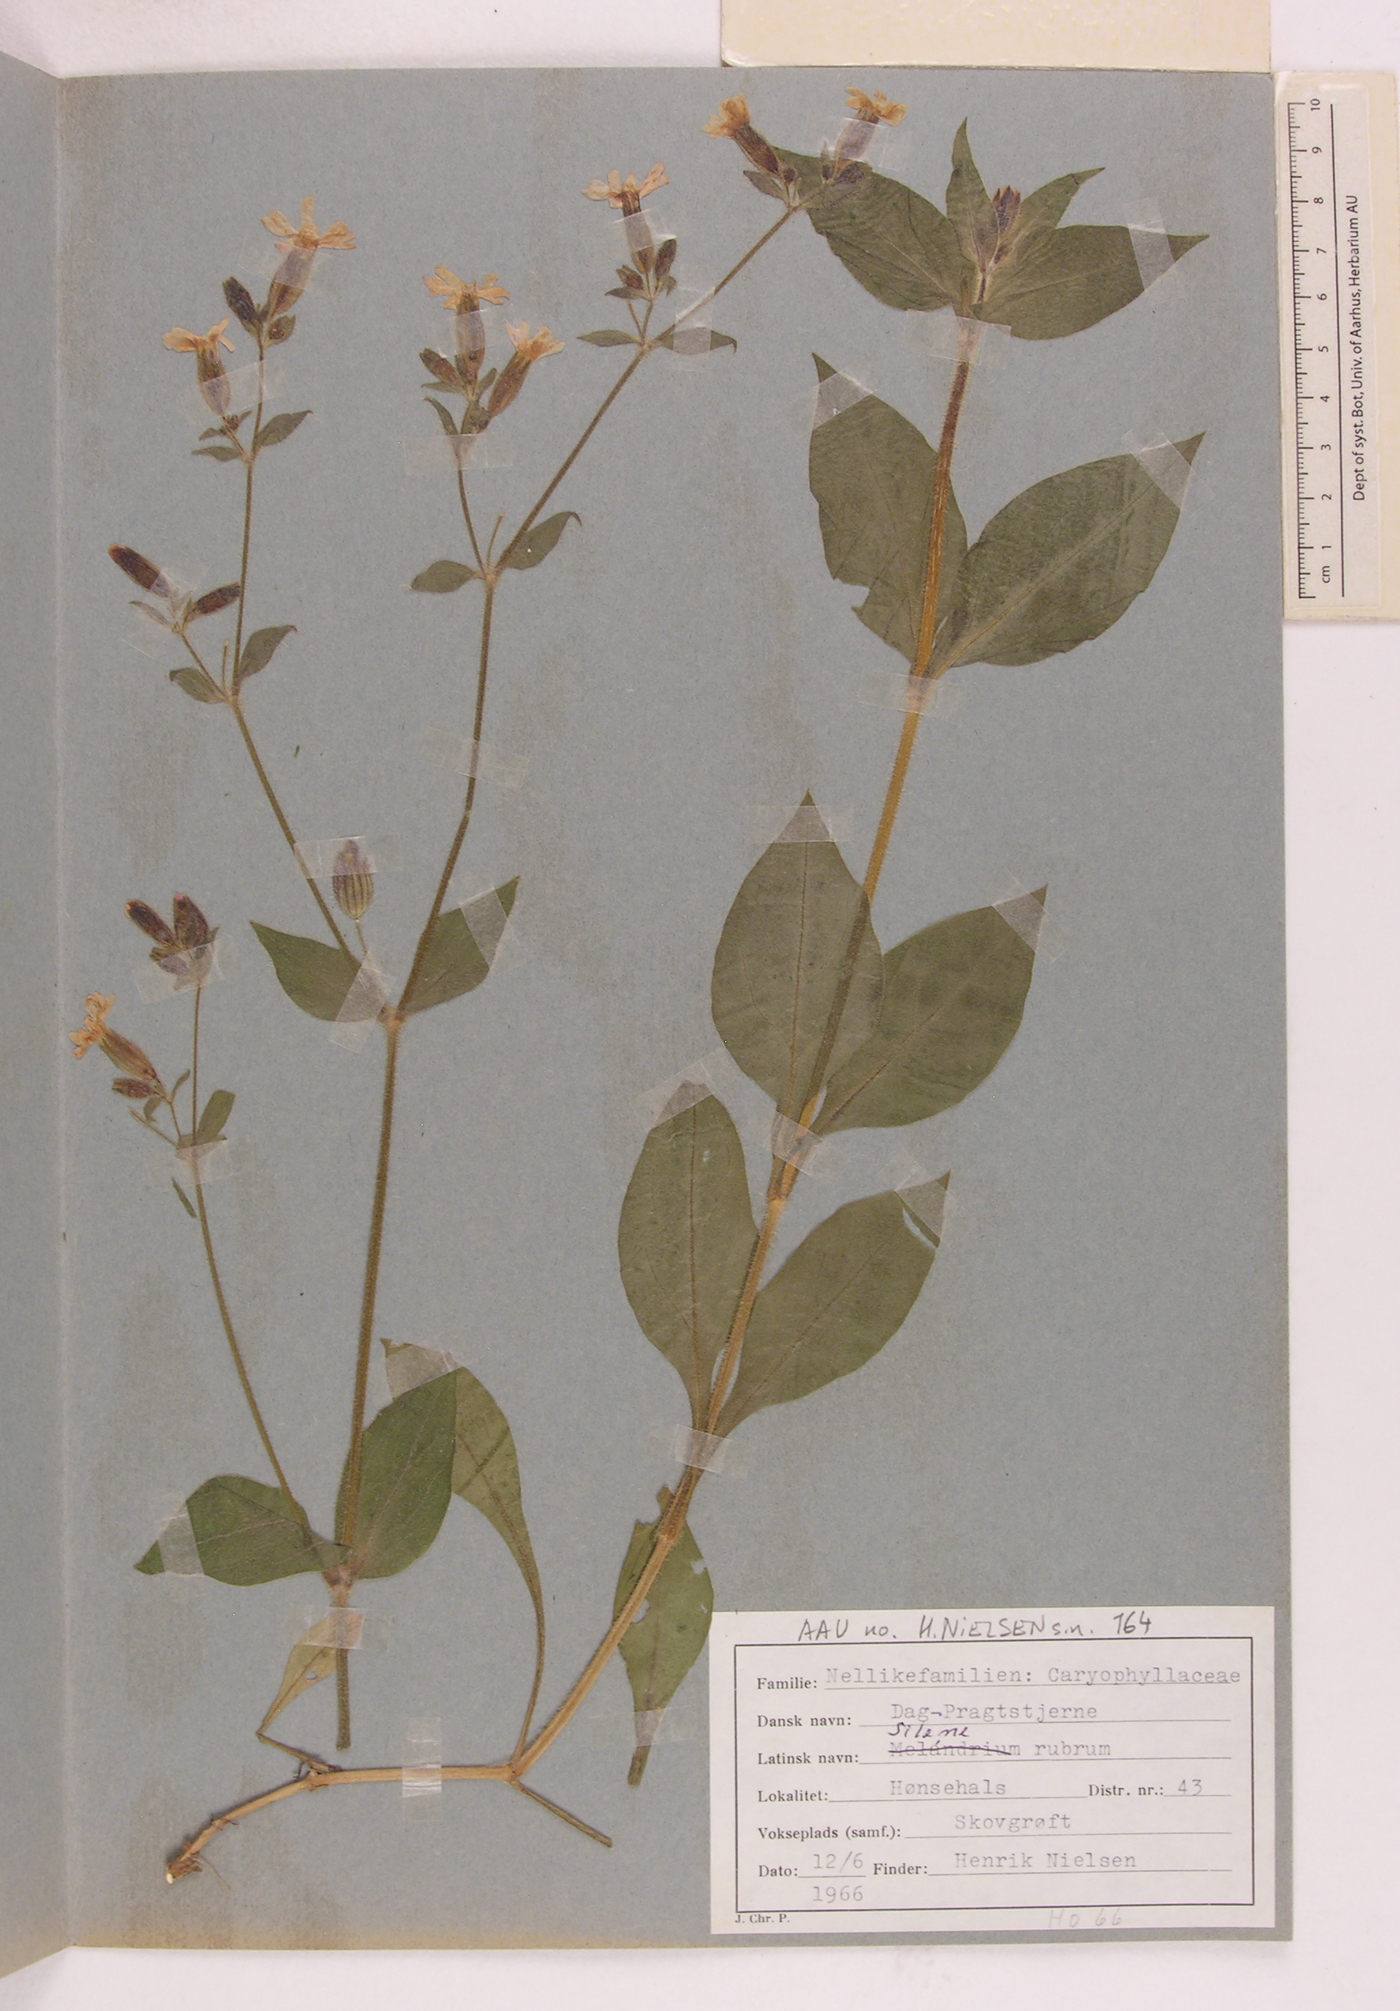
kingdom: Plantae
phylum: Tracheophyta
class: Magnoliopsida
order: Caryophyllales
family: Caryophyllaceae
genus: Silene
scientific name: Silene dioica
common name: Red campion
